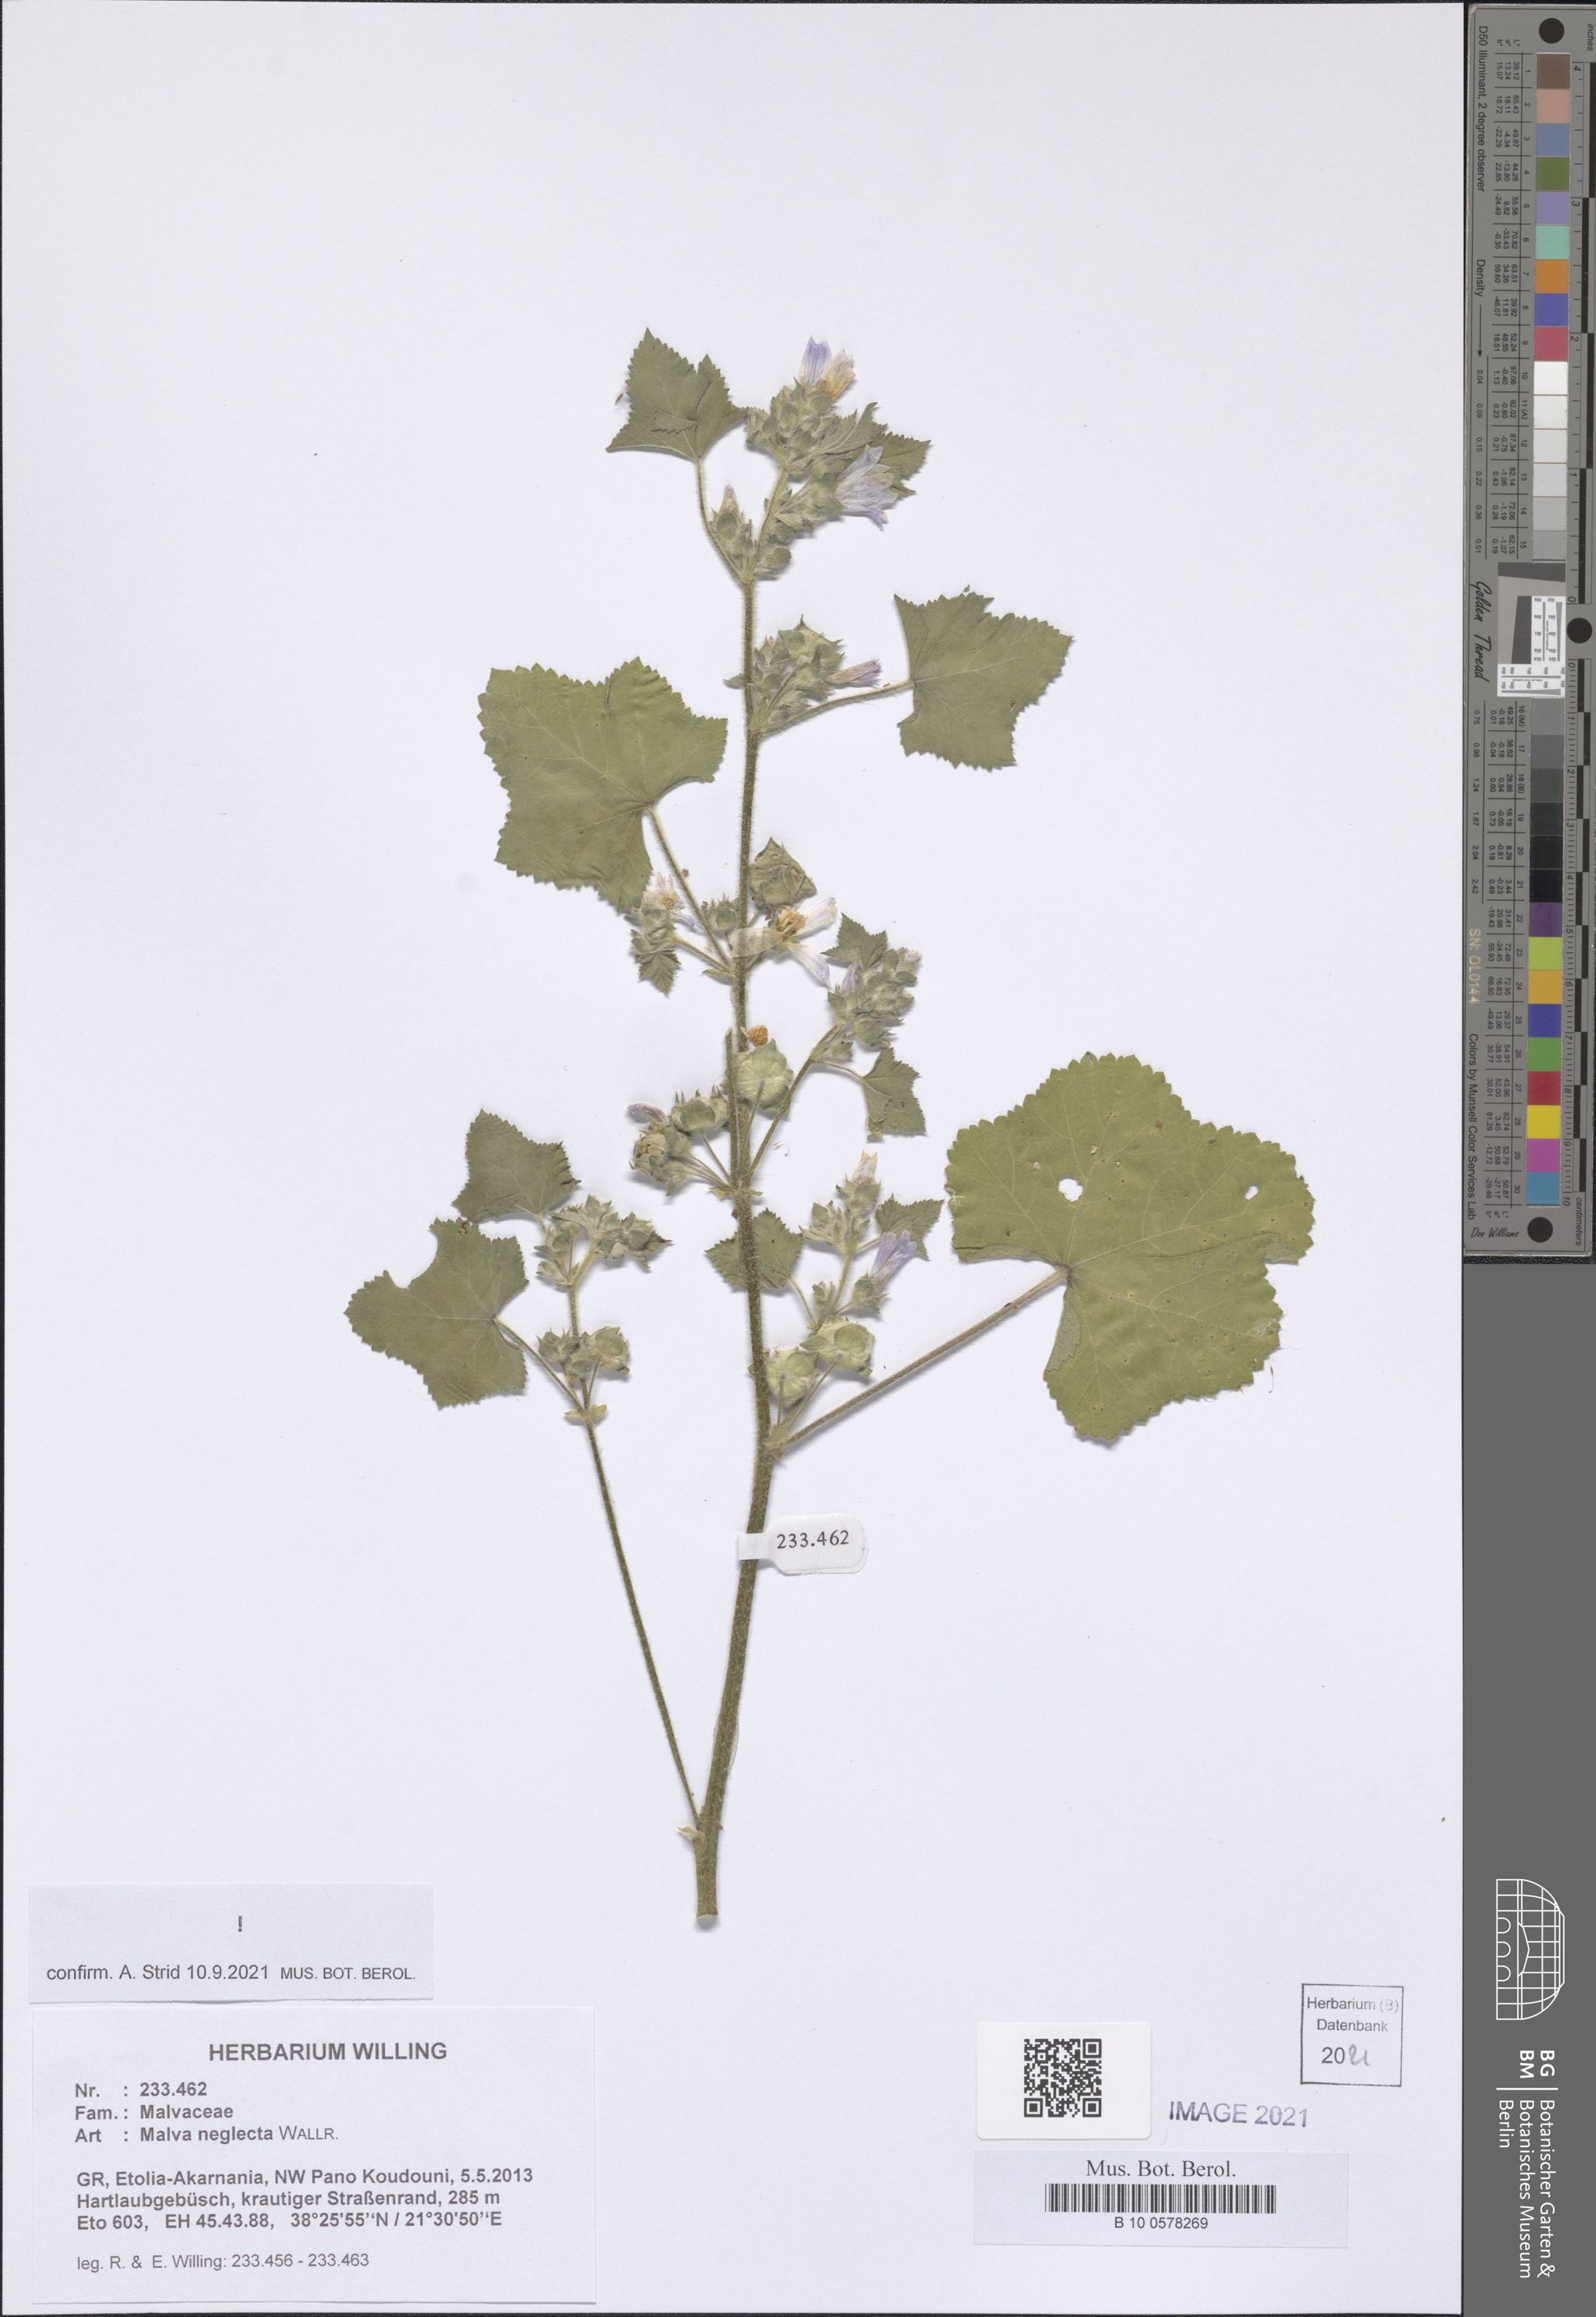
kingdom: Plantae
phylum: Tracheophyta
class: Magnoliopsida
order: Malvales
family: Malvaceae
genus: Malva
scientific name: Malva neglecta
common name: Common mallow
